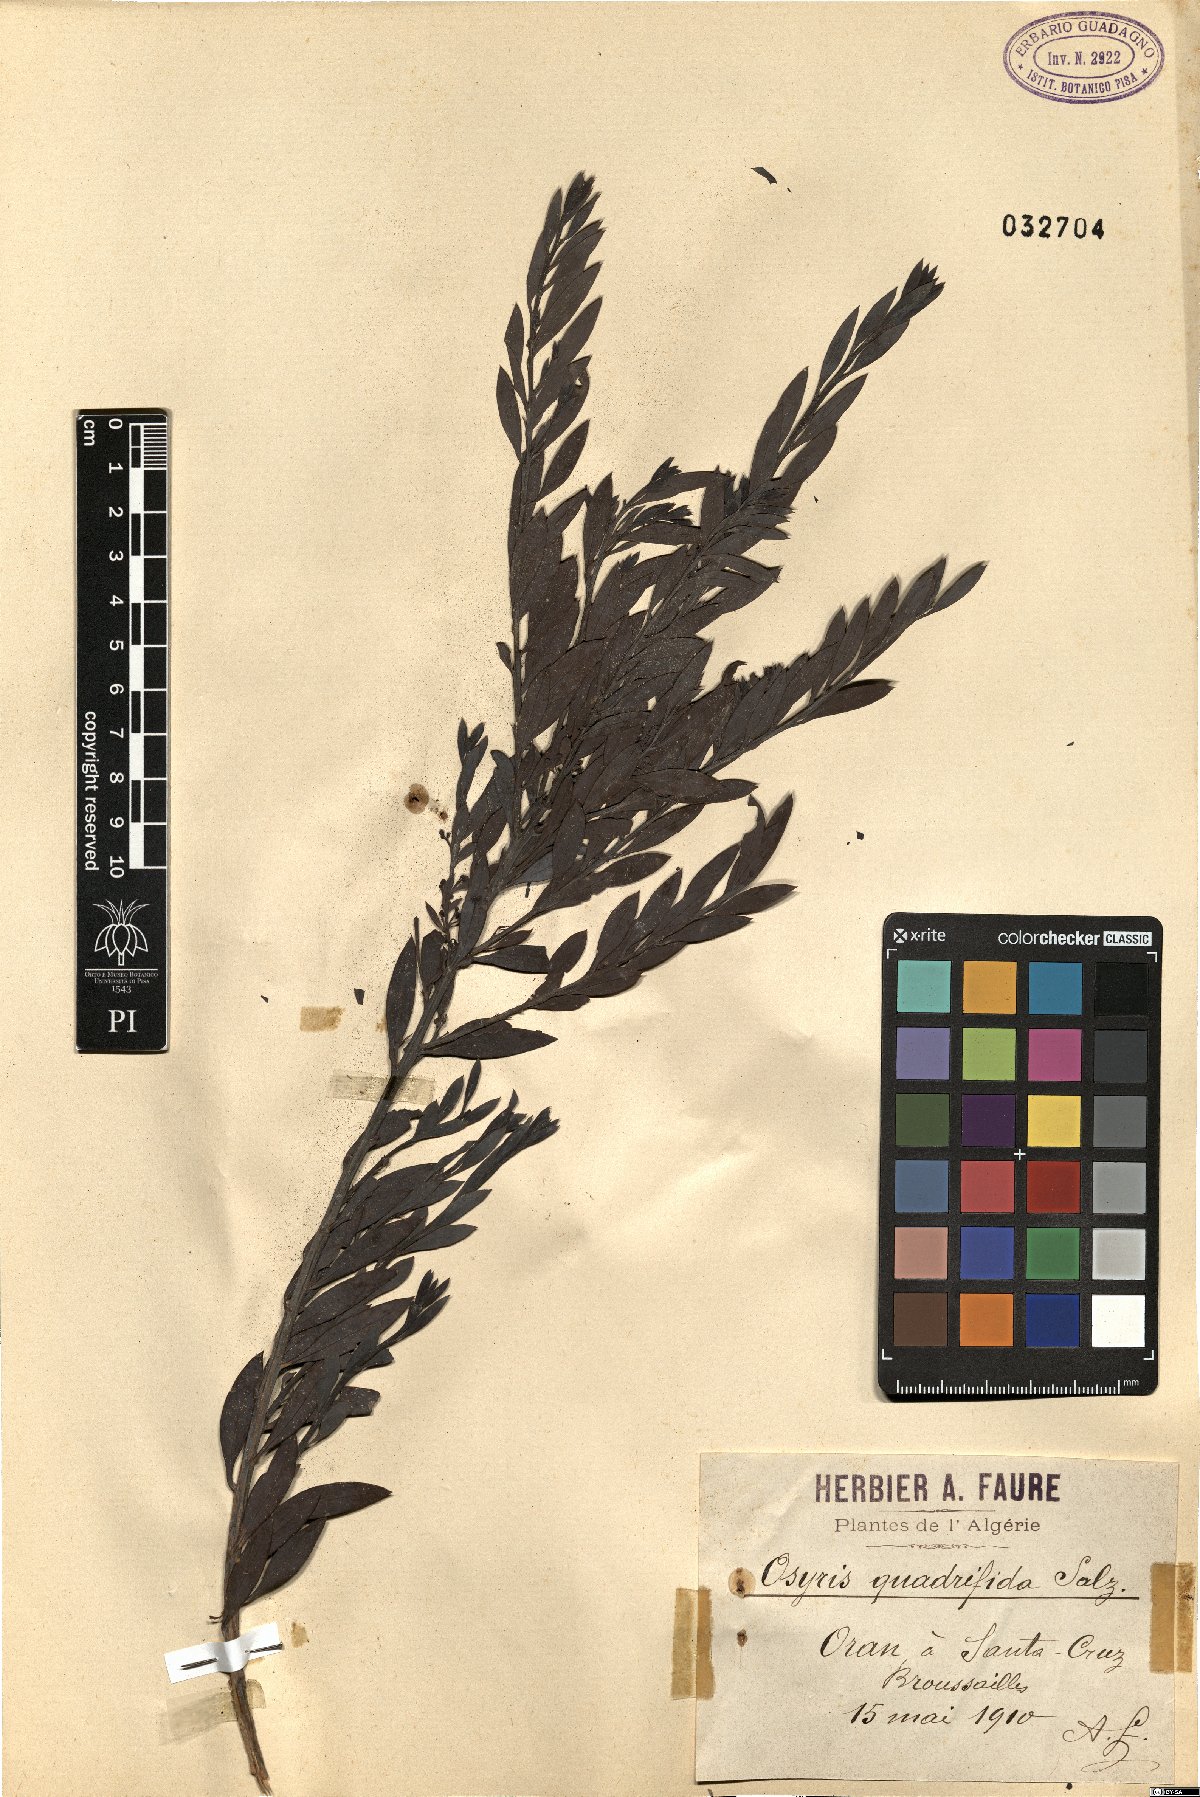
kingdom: Plantae
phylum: Tracheophyta
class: Magnoliopsida
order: Santalales
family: Santalaceae
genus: Osyris
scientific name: Osyris quadripartita
